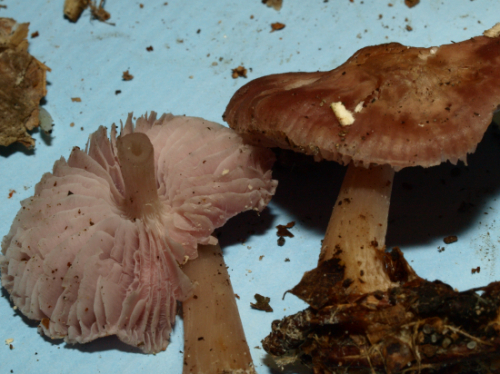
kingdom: Fungi
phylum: Basidiomycota
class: Agaricomycetes
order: Agaricales
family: Mycenaceae
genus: Mycena
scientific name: Mycena rosea
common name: rosa huesvamp
